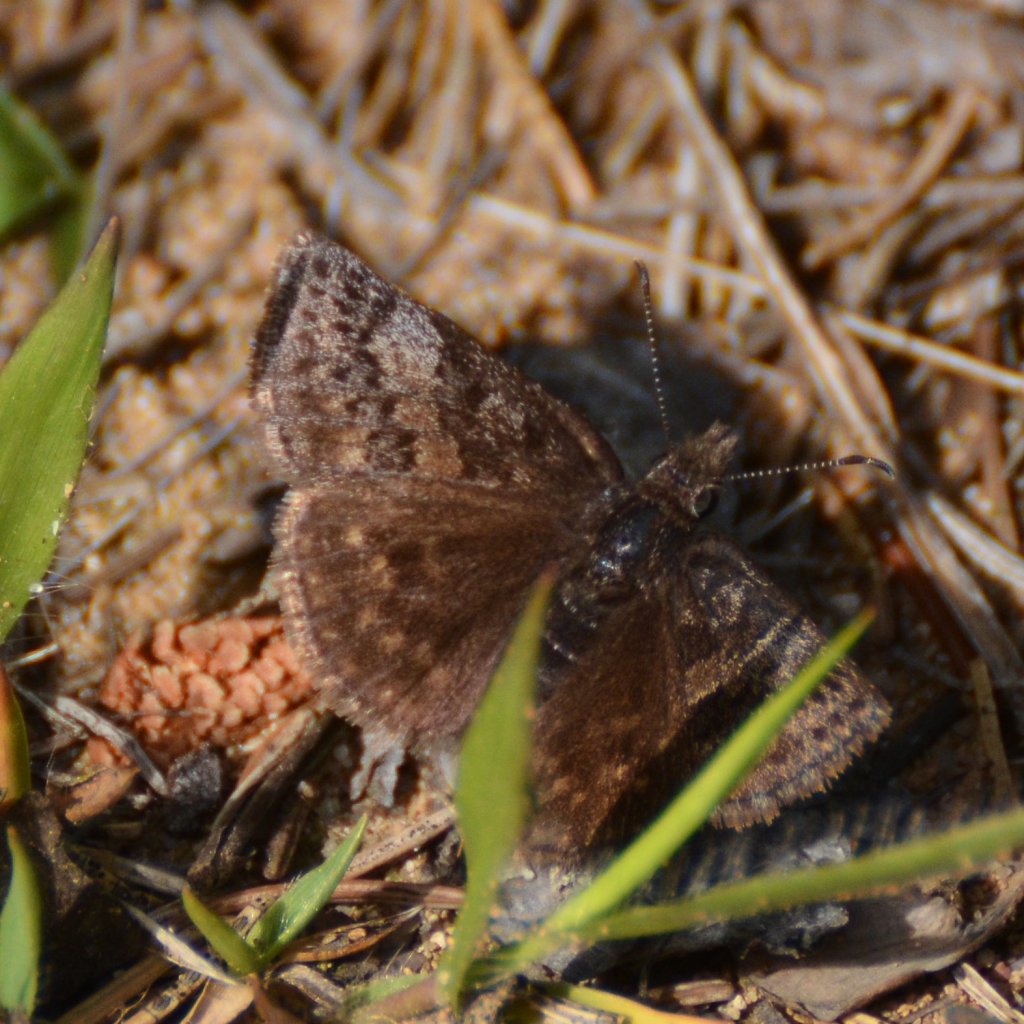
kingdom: Animalia
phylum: Arthropoda
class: Insecta
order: Lepidoptera
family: Hesperiidae
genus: Erynnis
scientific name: Erynnis icelus
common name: Dreamy Duskywing
